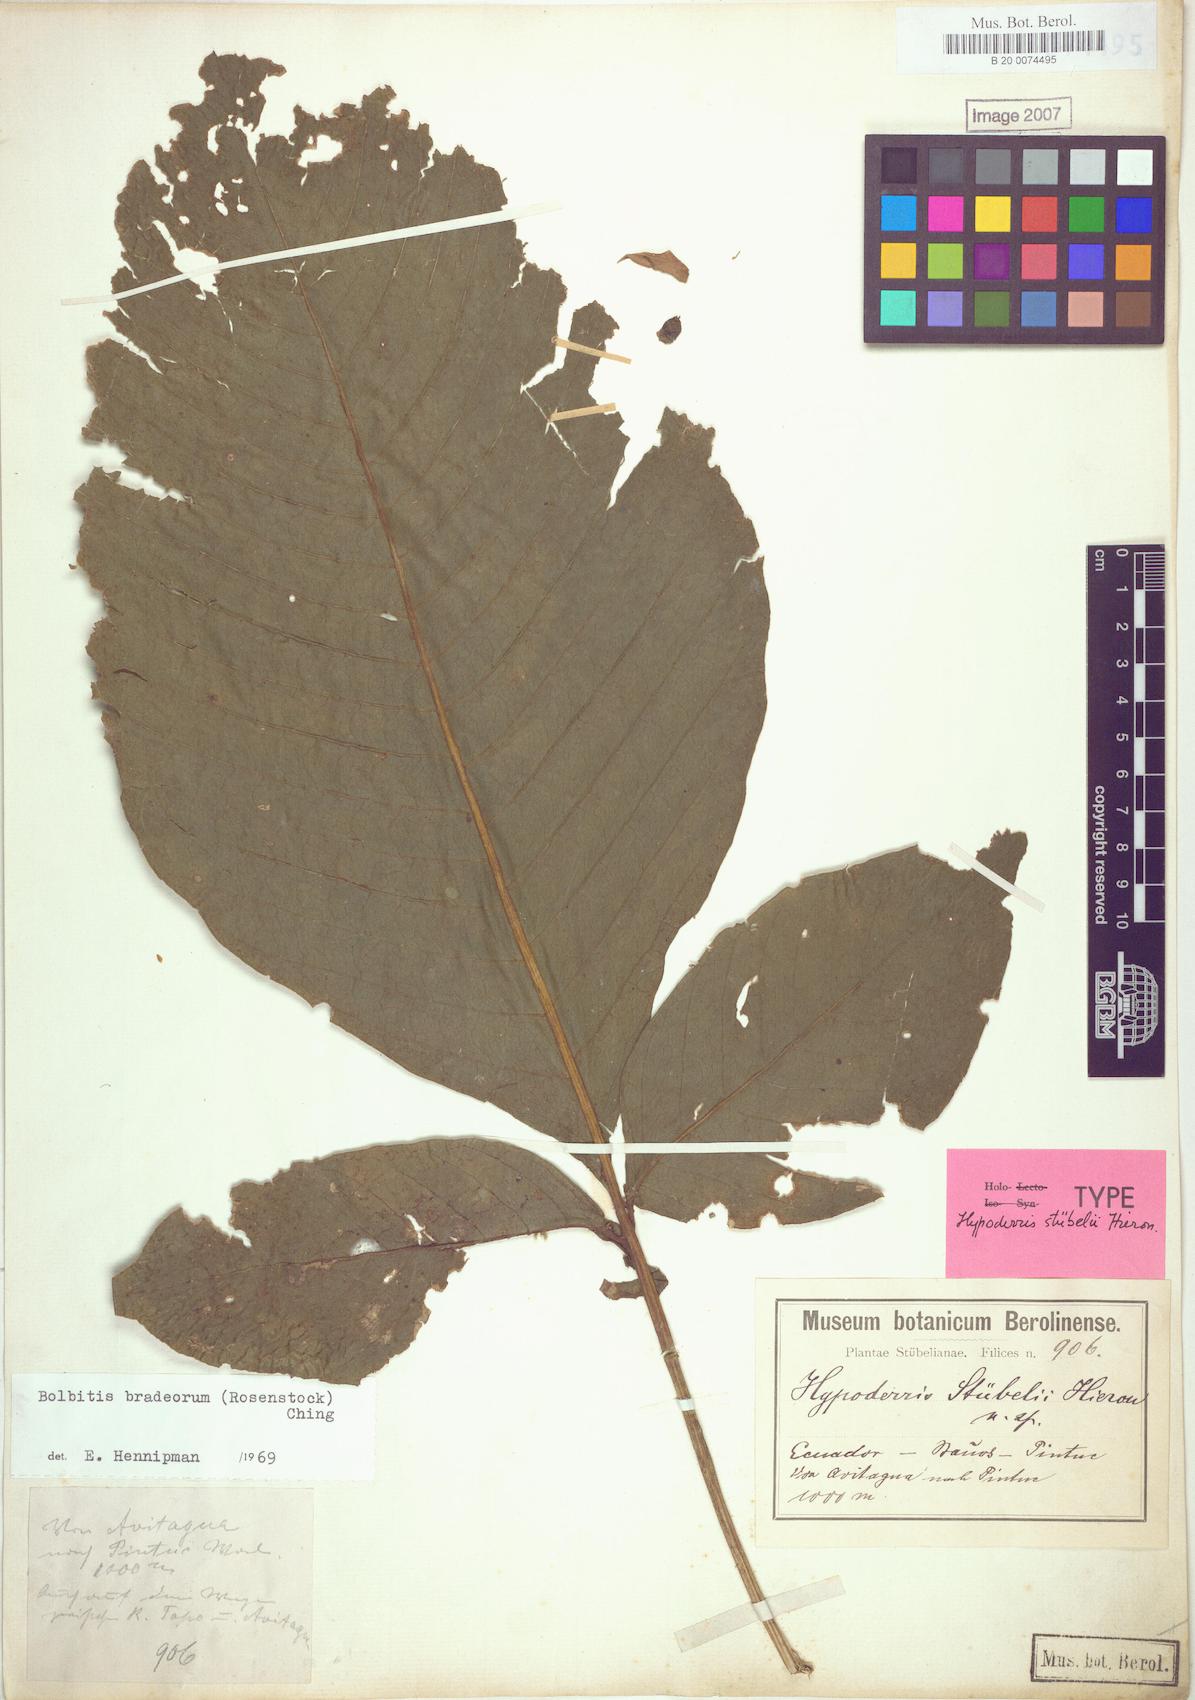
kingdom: Plantae
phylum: Tracheophyta
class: Polypodiopsida
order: Polypodiales
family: Dennstaedtiaceae
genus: Hypolepis
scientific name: Hypolepis stuebelii
